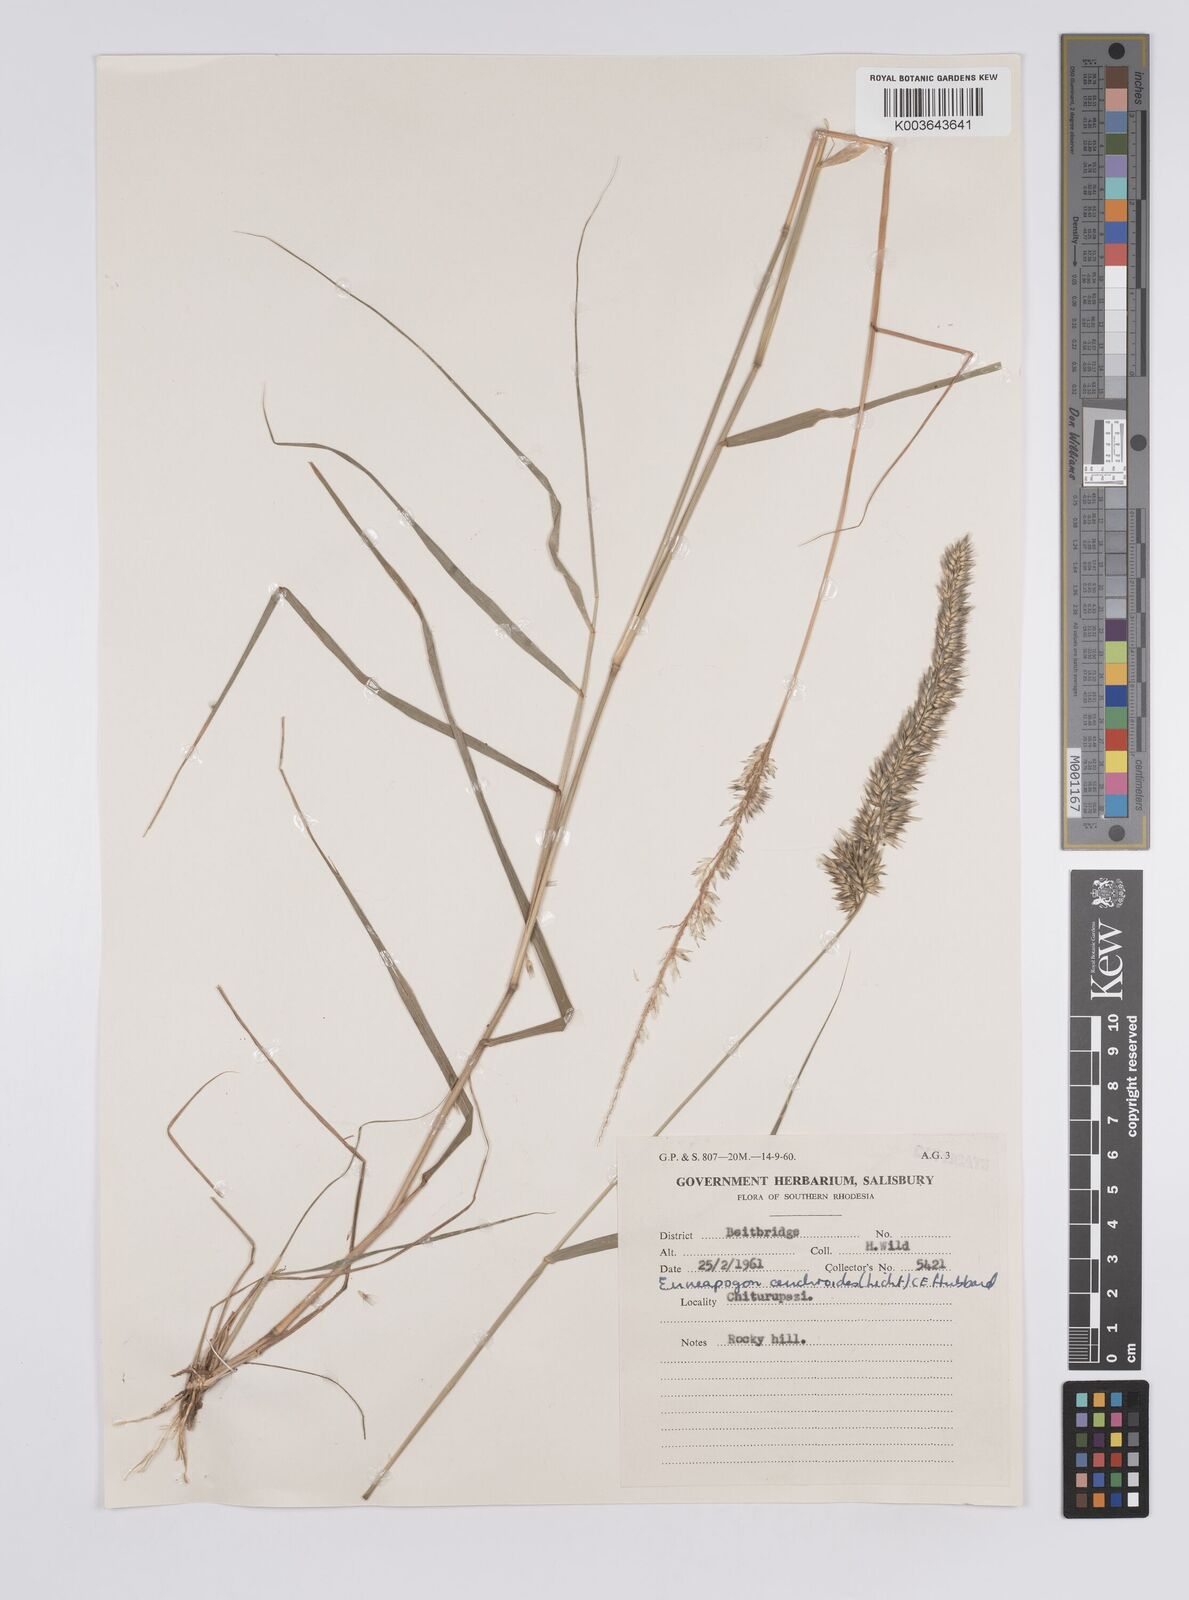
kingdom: Plantae
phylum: Tracheophyta
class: Liliopsida
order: Poales
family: Poaceae
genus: Enneapogon
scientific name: Enneapogon cenchroides
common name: Soft feather pappusgrass
